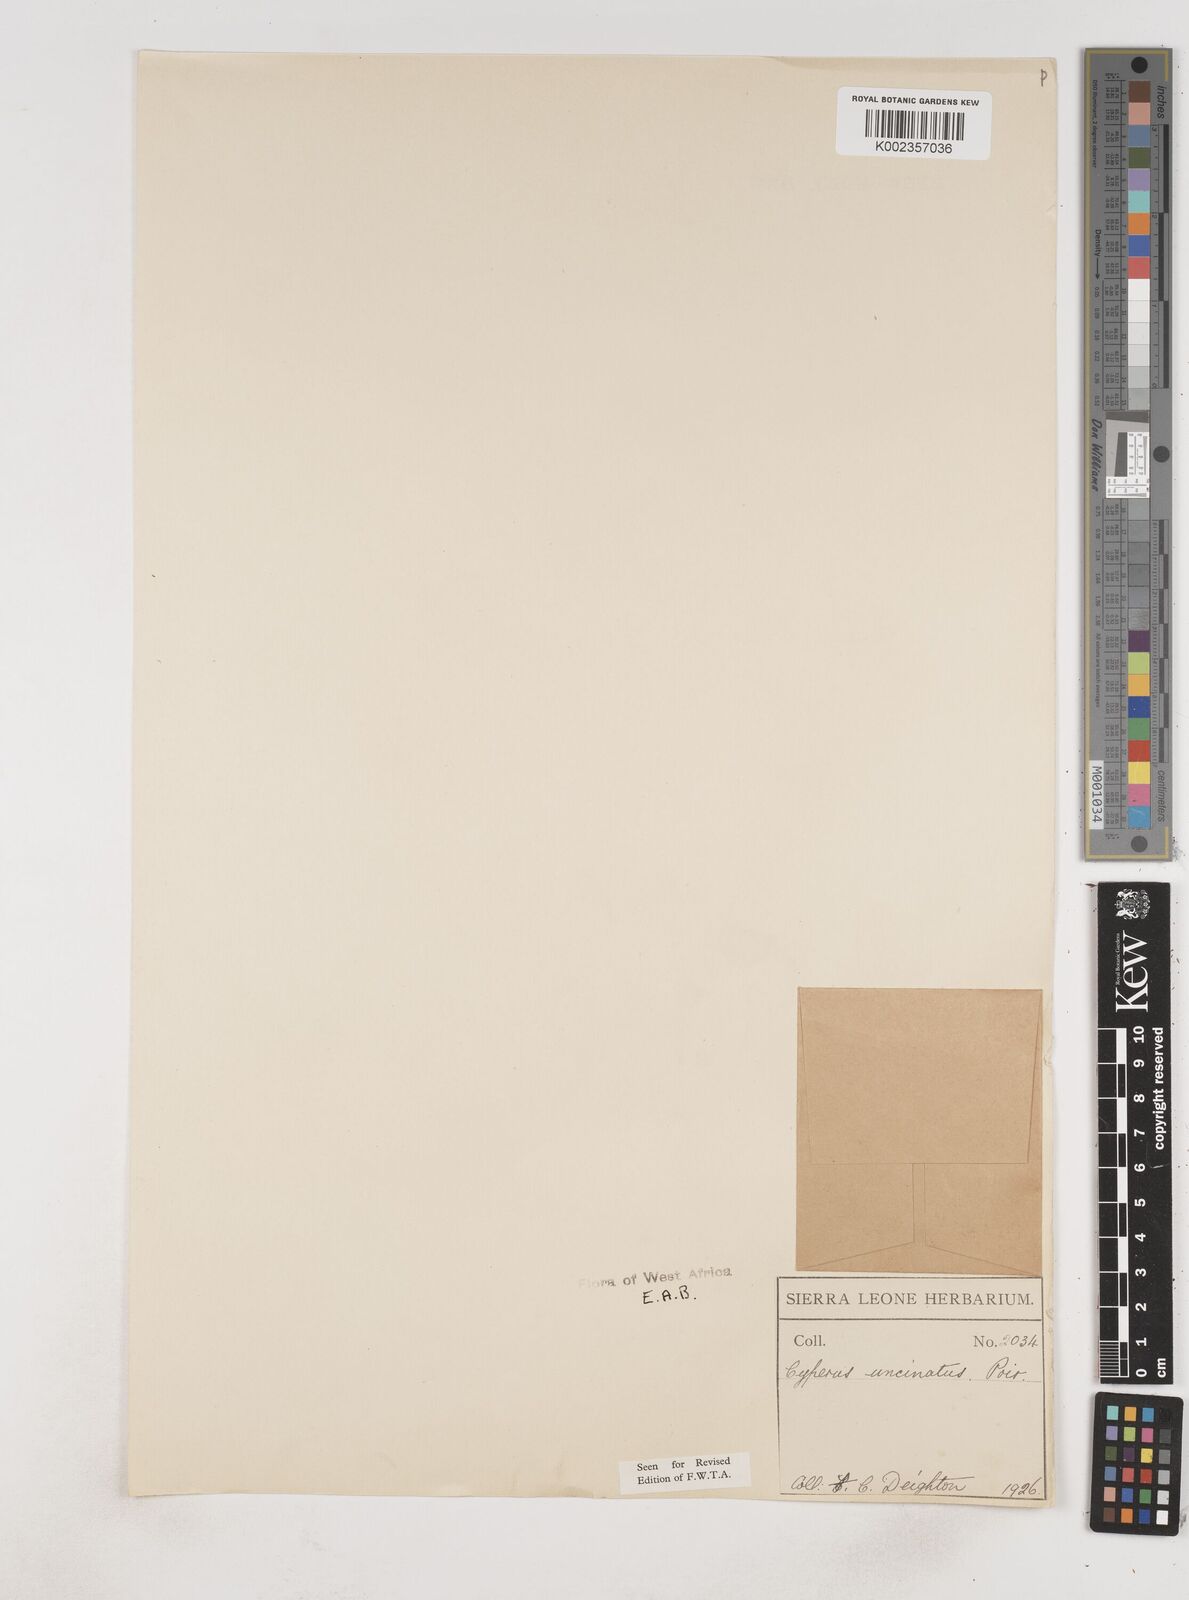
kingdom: Plantae
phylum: Tracheophyta
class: Liliopsida
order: Poales
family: Cyperaceae
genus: Cyperus
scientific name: Cyperus
